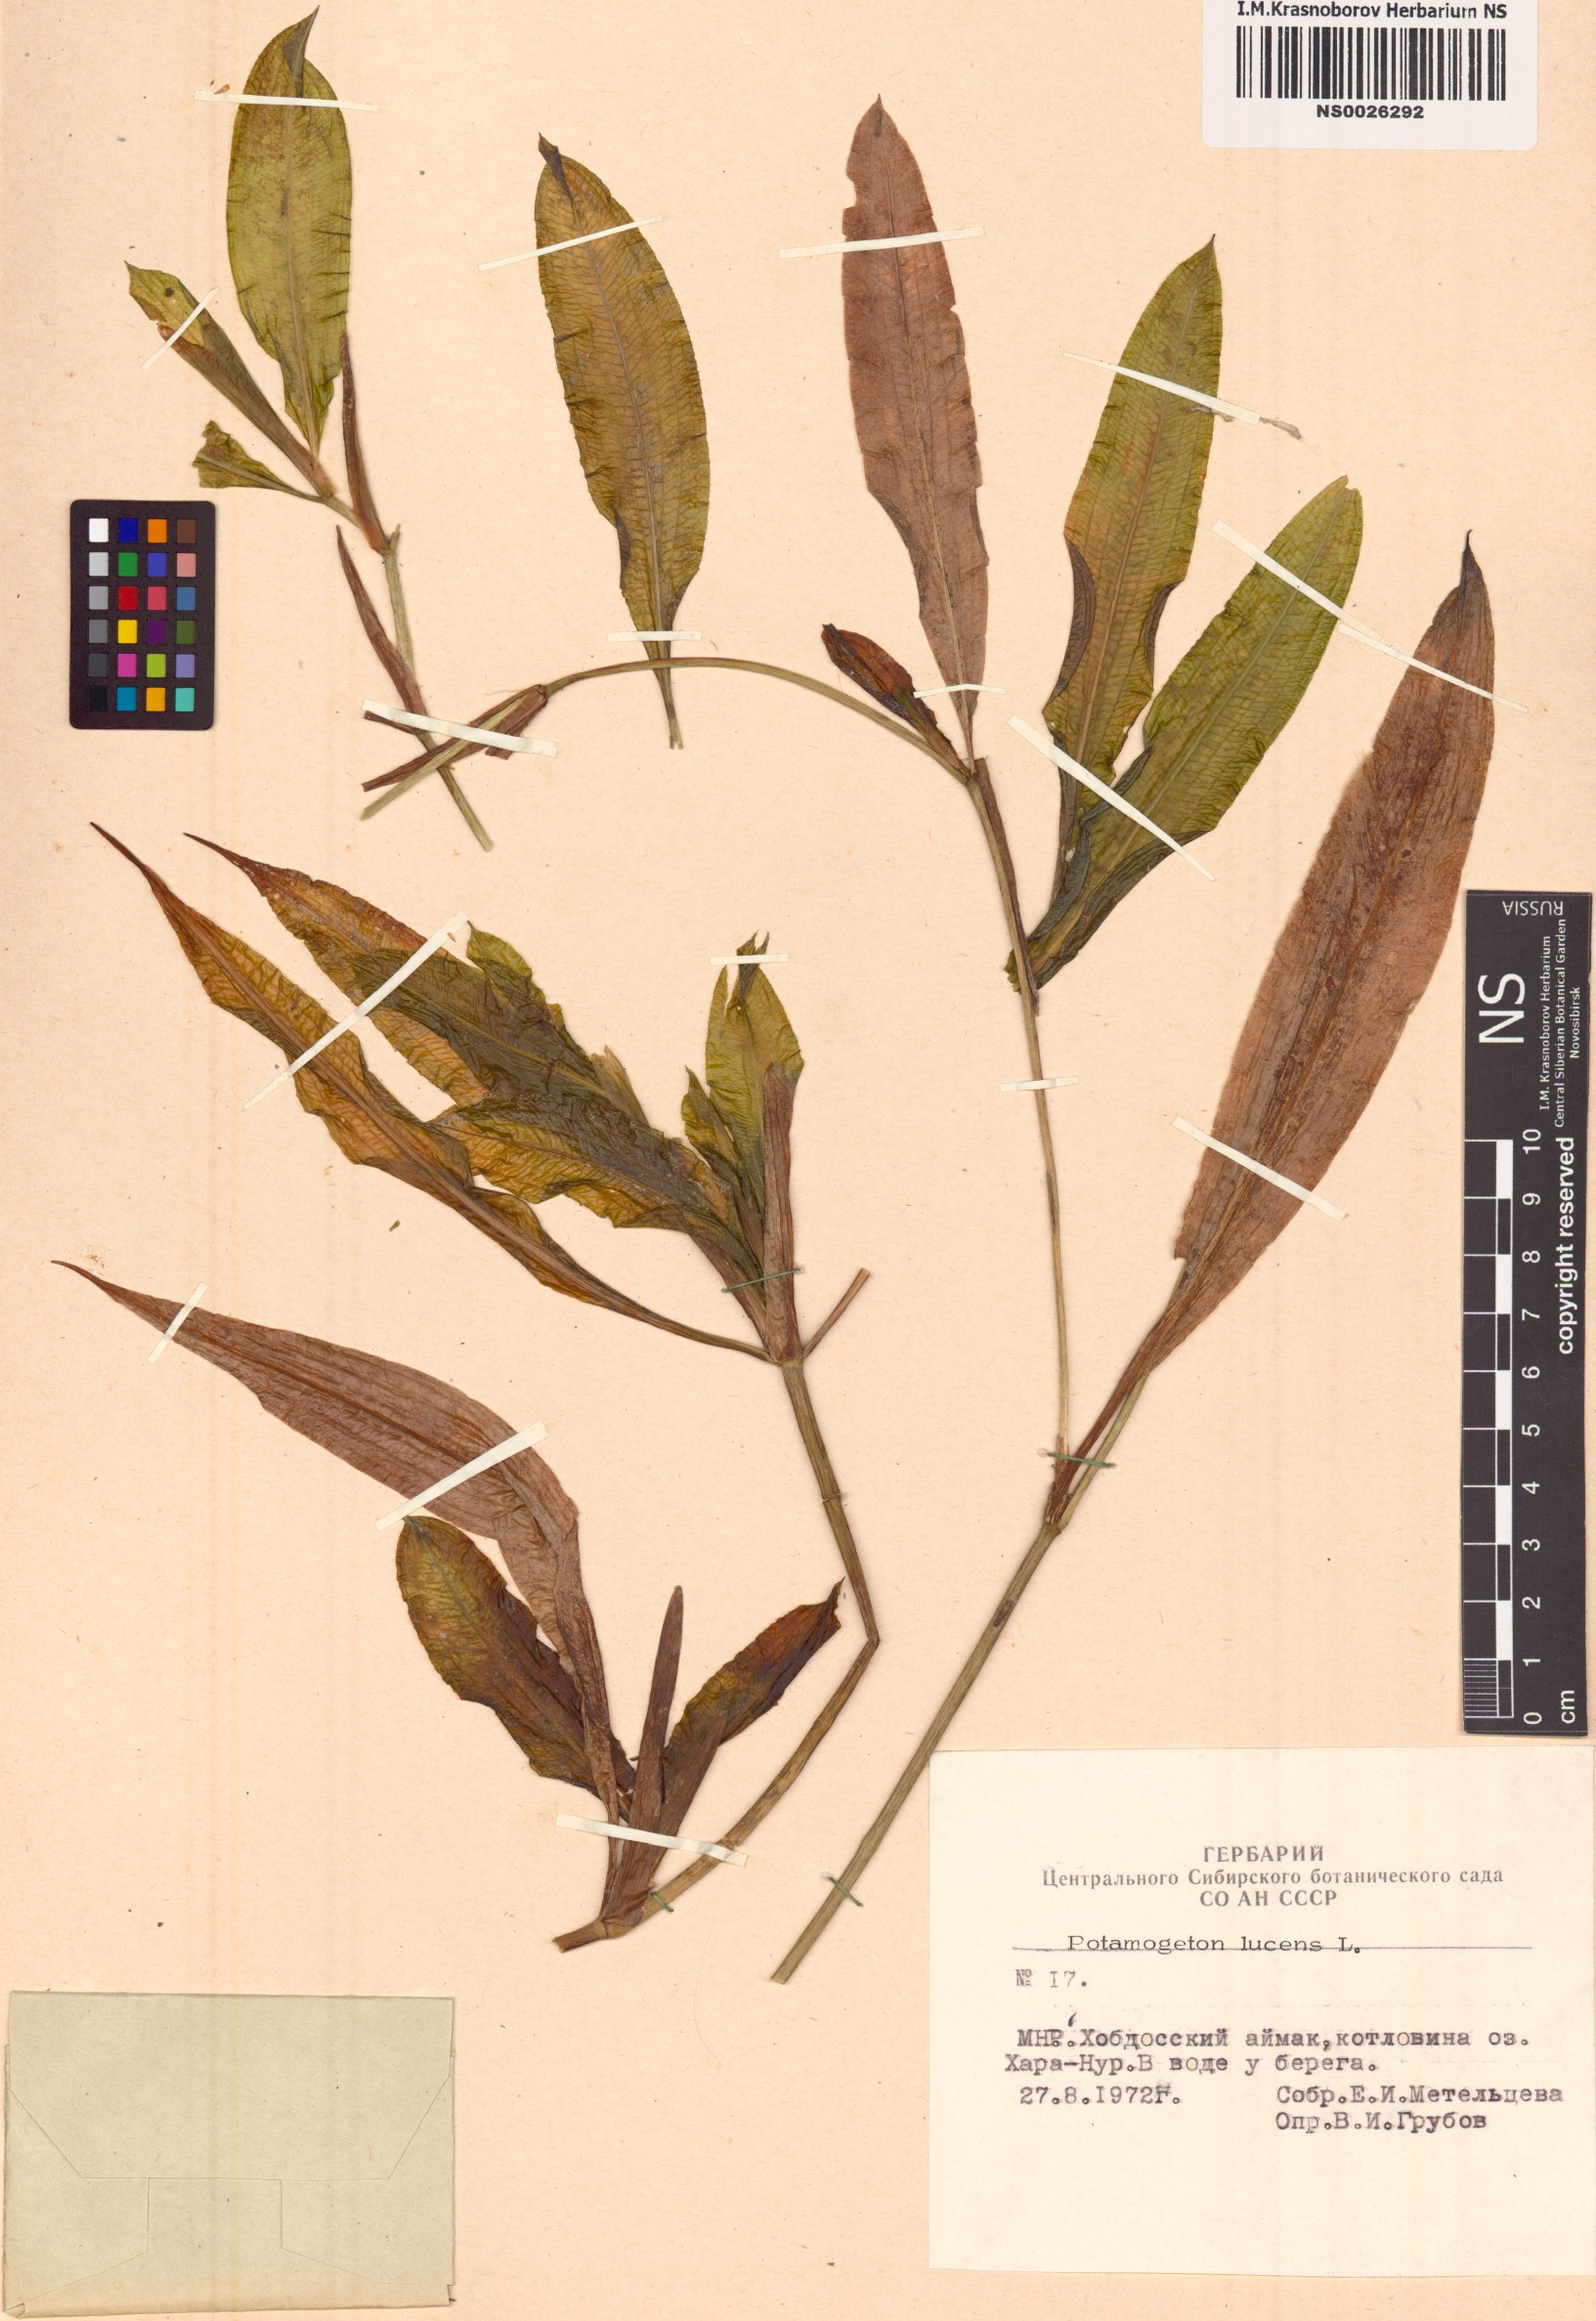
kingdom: Plantae
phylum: Tracheophyta
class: Liliopsida
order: Alismatales
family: Potamogetonaceae
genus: Potamogeton
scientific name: Potamogeton lucens
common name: Shining pondweed
